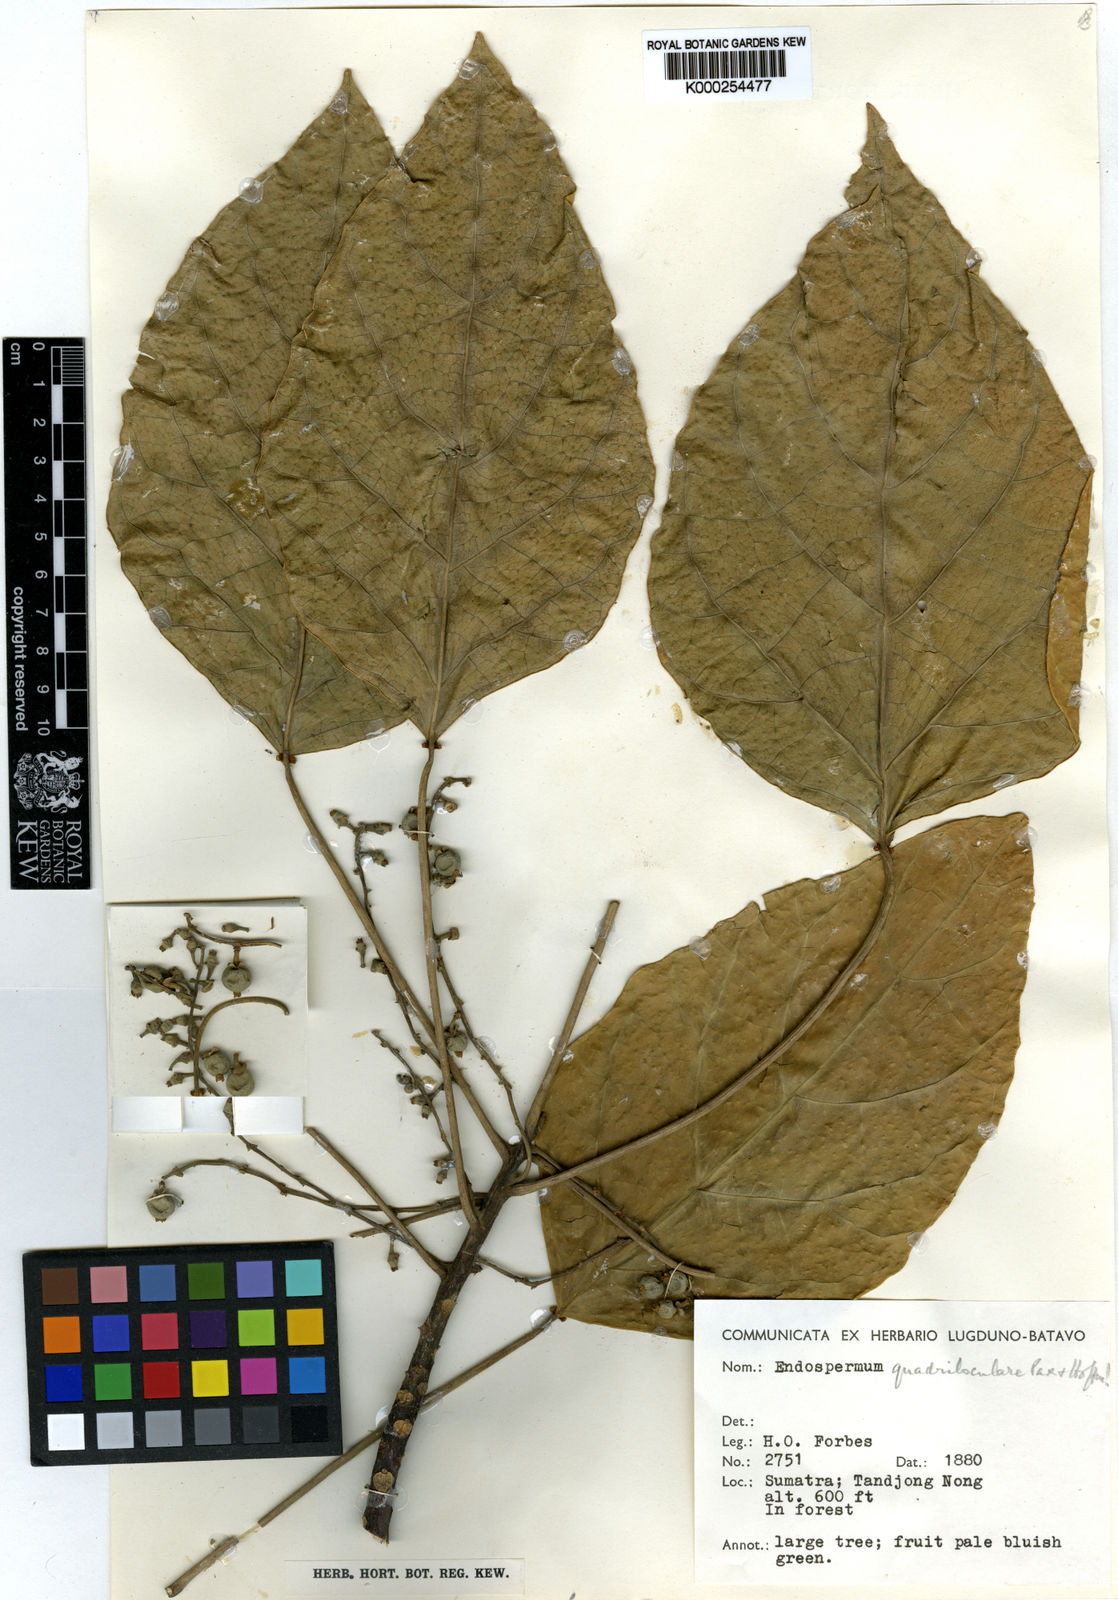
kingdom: Plantae
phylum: Tracheophyta
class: Magnoliopsida
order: Malpighiales
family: Euphorbiaceae
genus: Endospermum
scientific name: Endospermum quadriloculare
